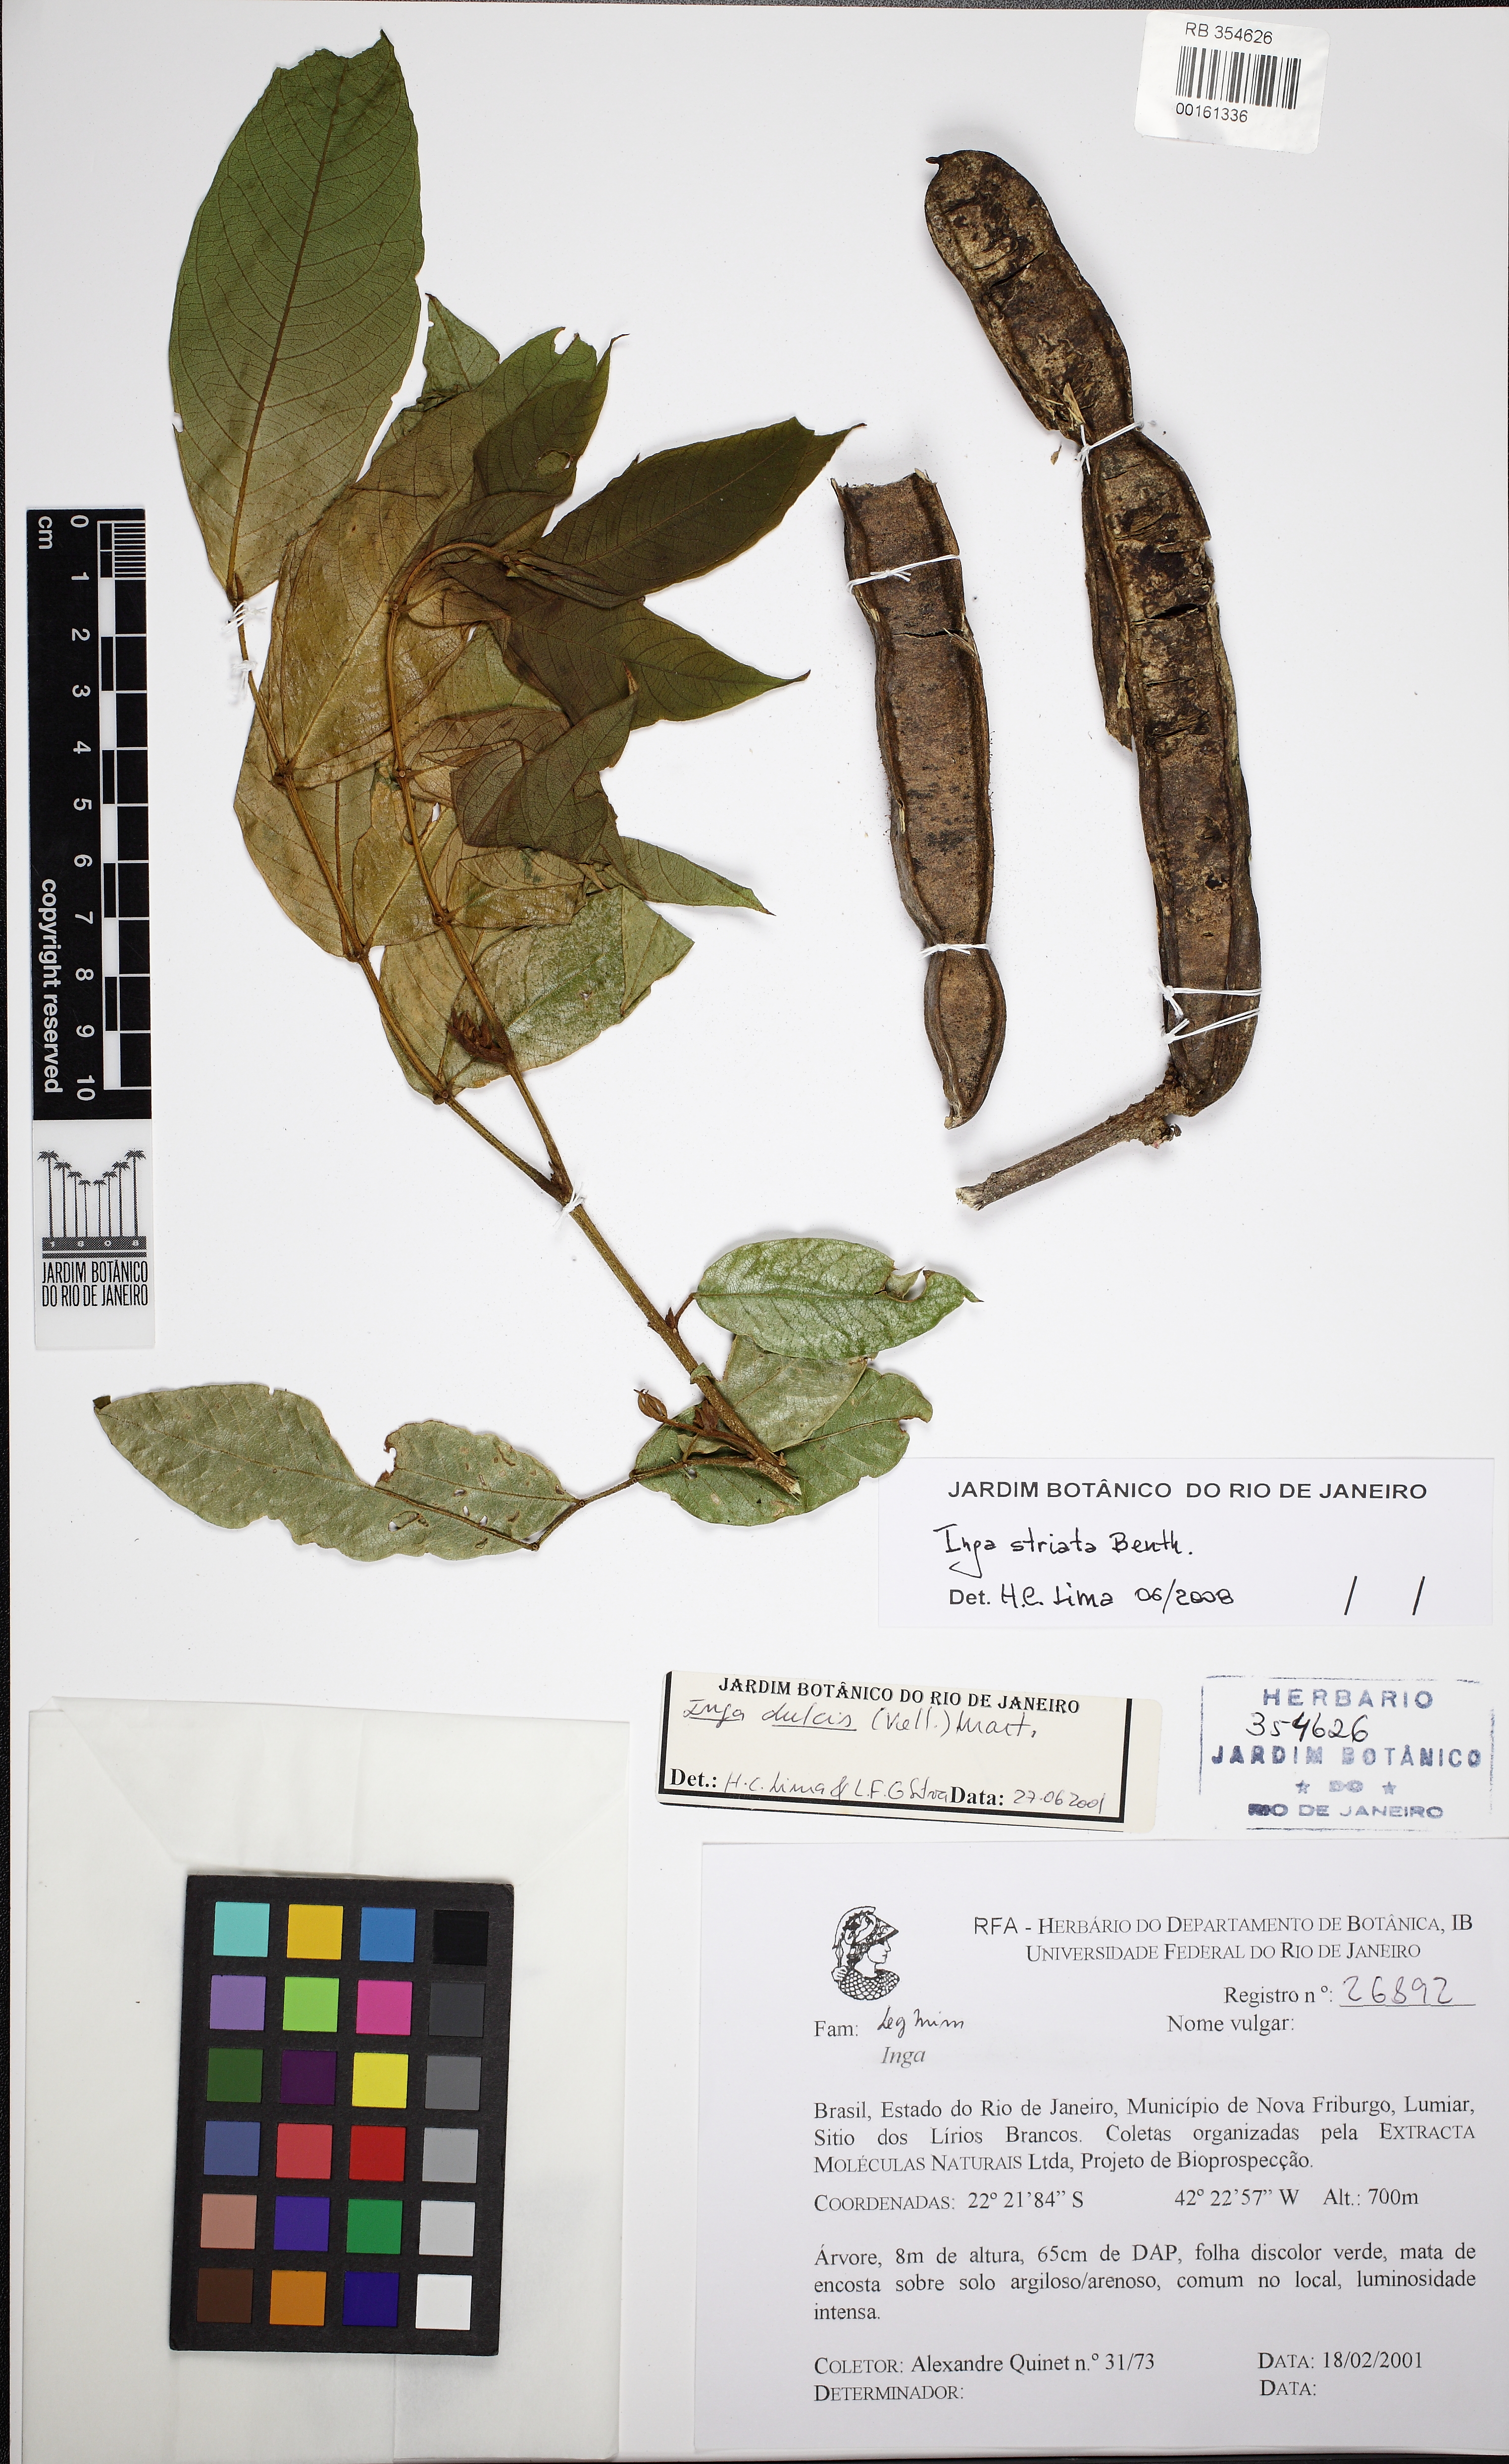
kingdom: Plantae
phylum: Tracheophyta
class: Magnoliopsida
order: Fabales
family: Fabaceae
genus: Inga
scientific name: Inga striata
